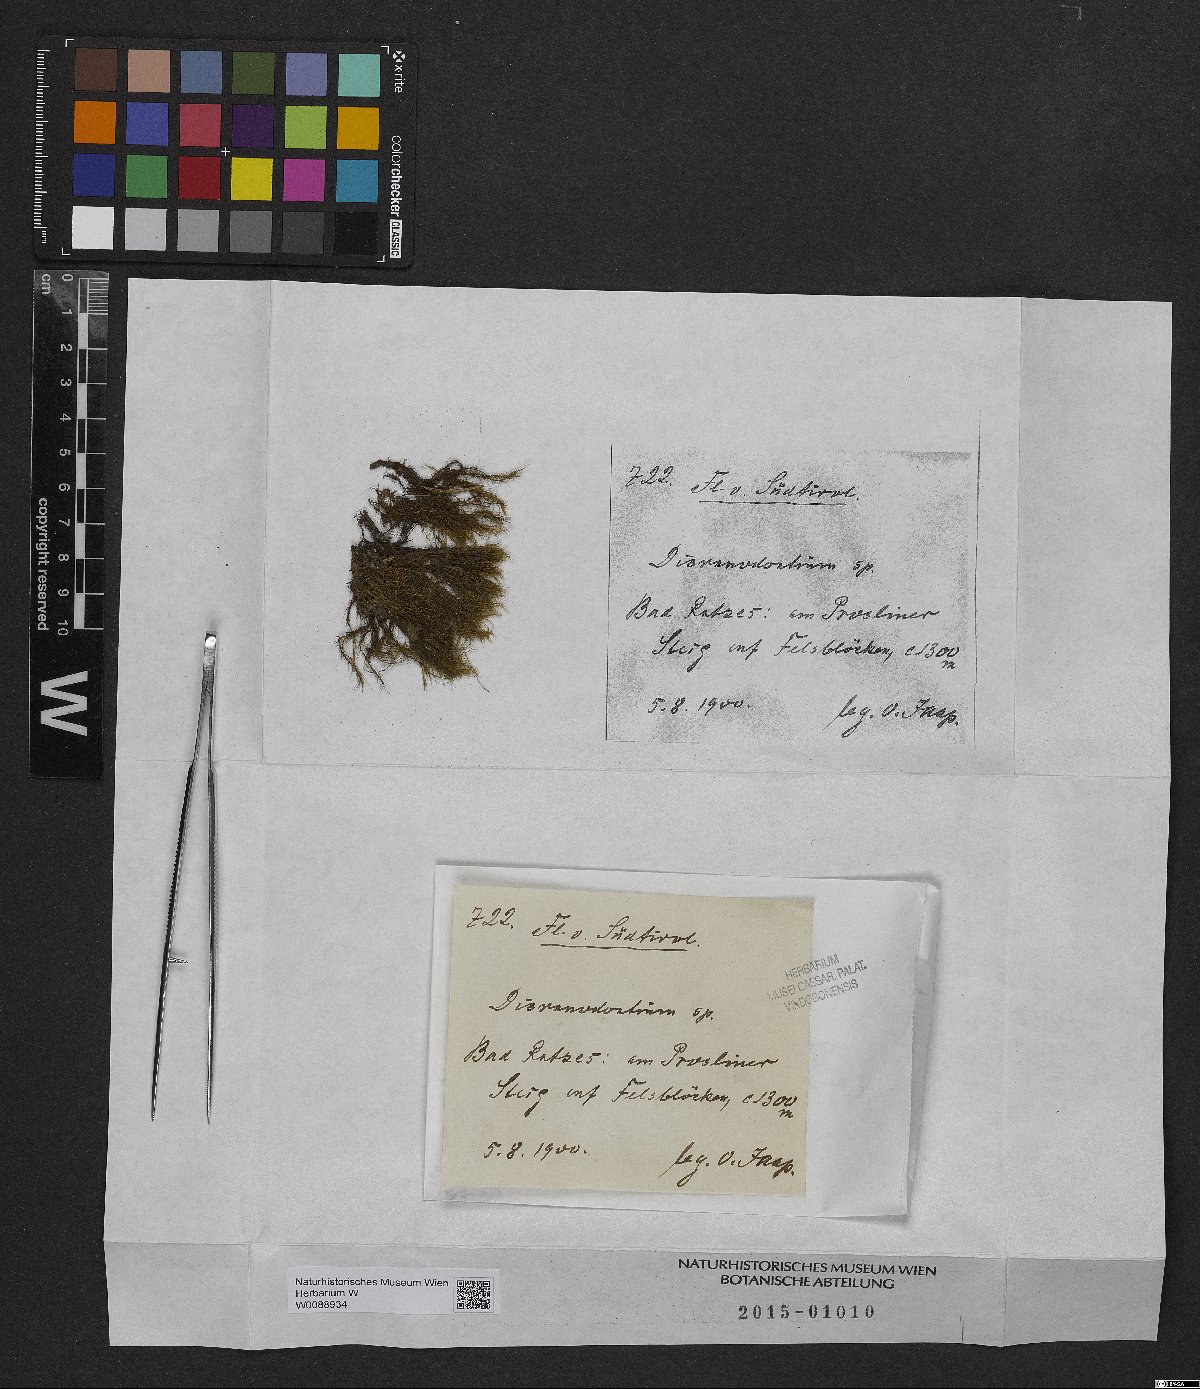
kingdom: Plantae
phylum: Bryophyta
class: Bryopsida
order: Dicranales
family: Leucobryaceae
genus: Dicranodontium
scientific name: Dicranodontium
